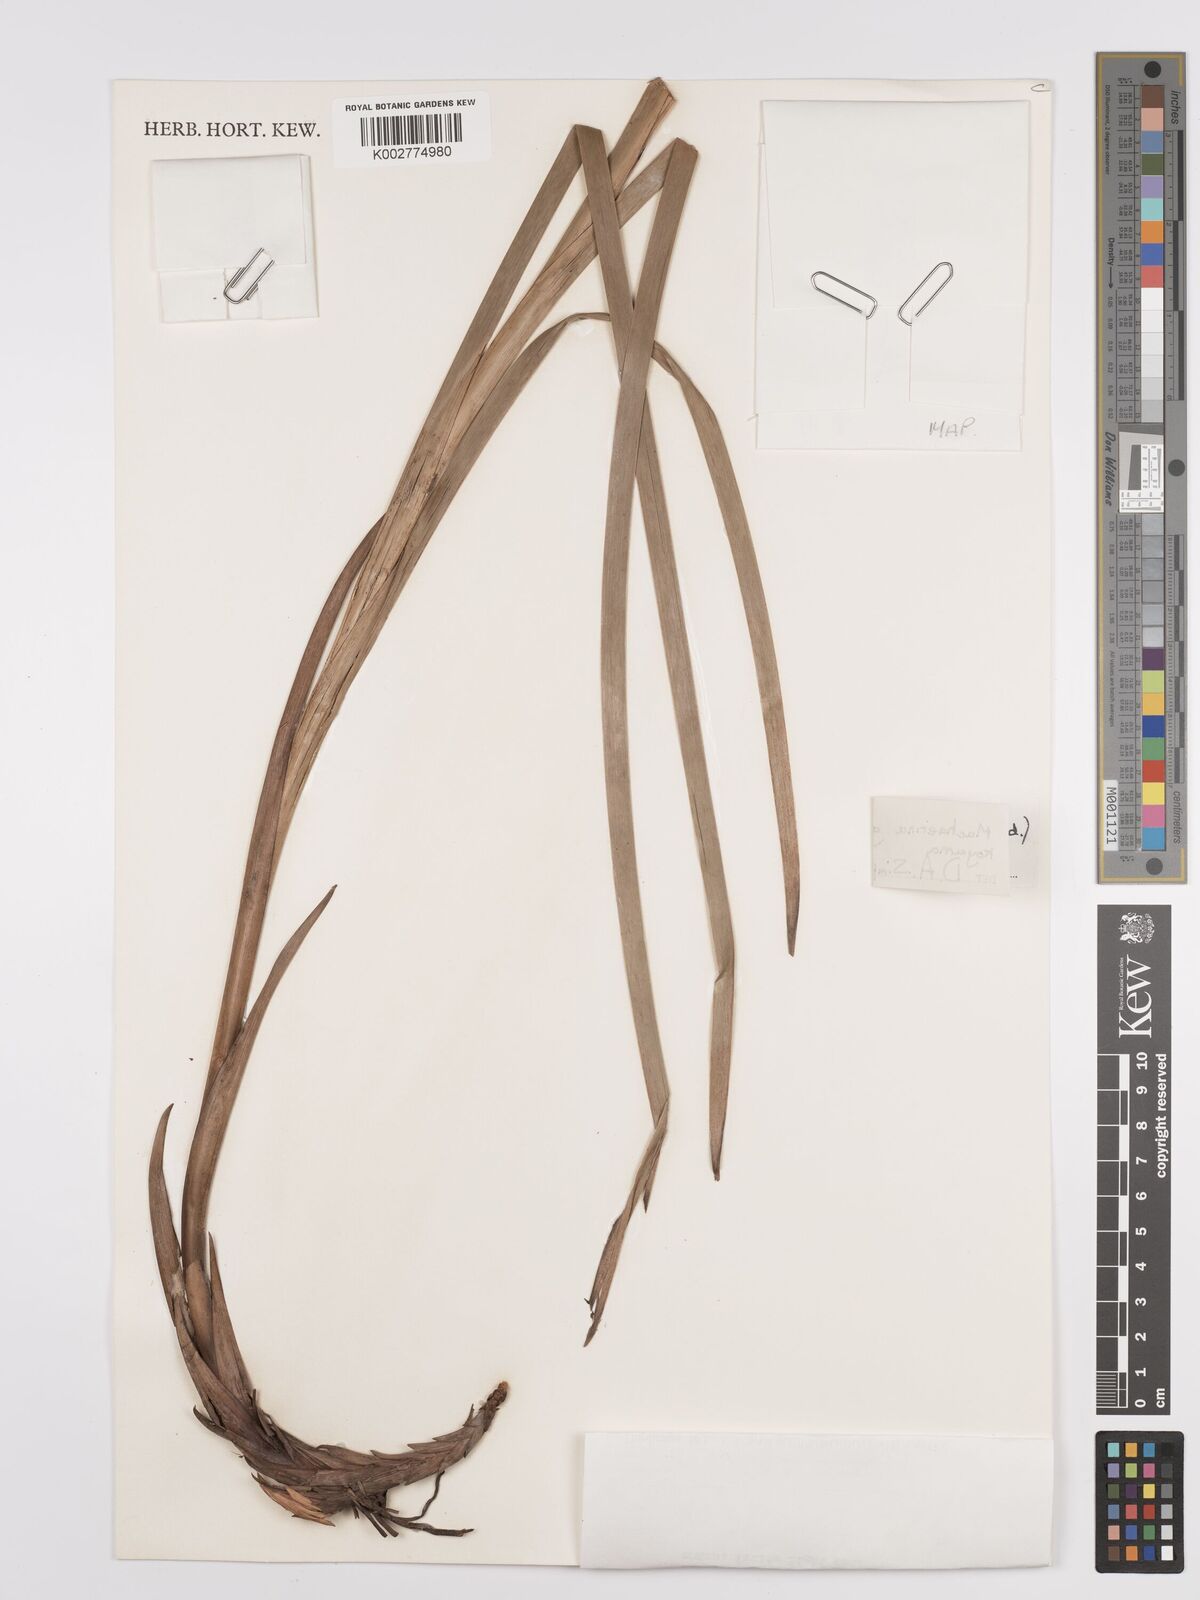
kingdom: Plantae
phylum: Tracheophyta
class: Liliopsida
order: Poales
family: Cyperaceae
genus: Machaerina
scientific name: Machaerina glomerata
